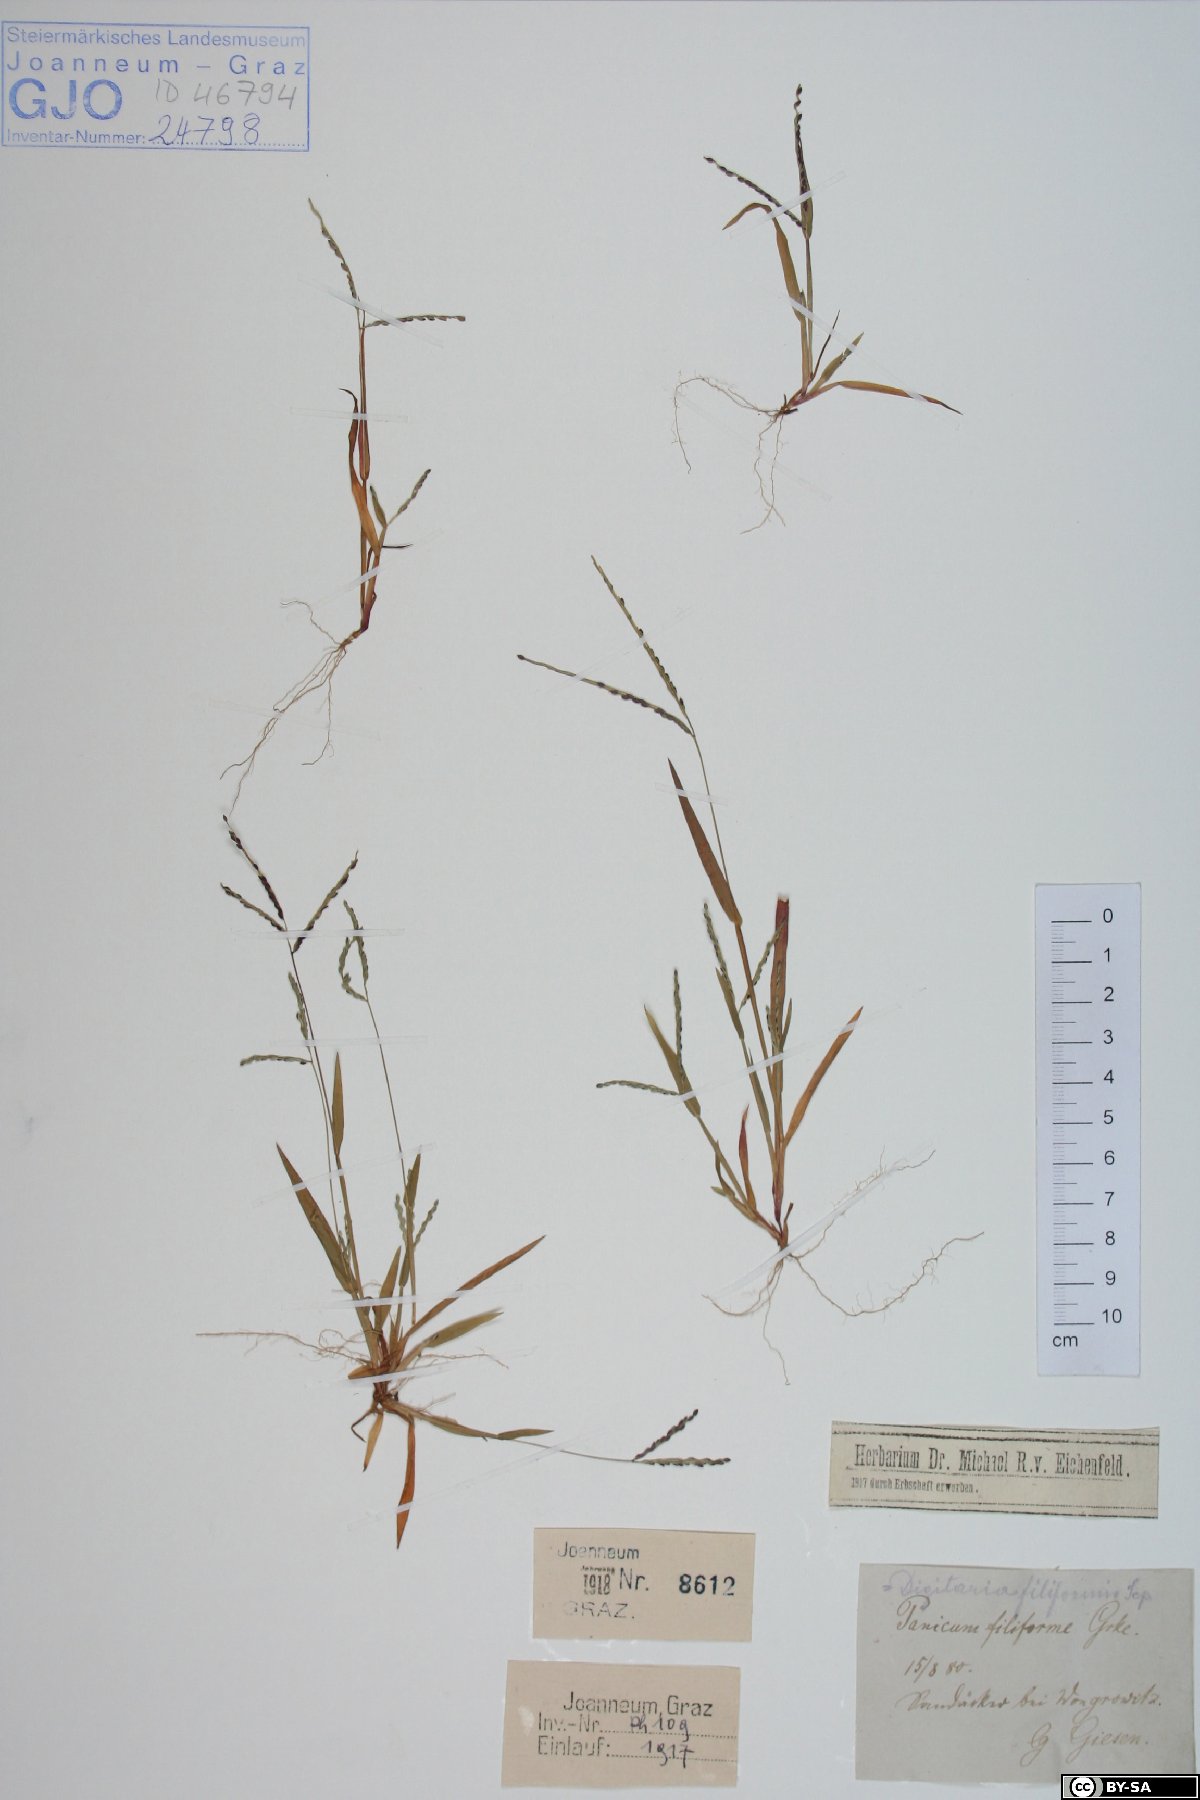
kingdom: Plantae
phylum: Tracheophyta
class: Liliopsida
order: Poales
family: Poaceae
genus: Digitaria
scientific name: Digitaria filiformis
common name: Slender crabgrass
